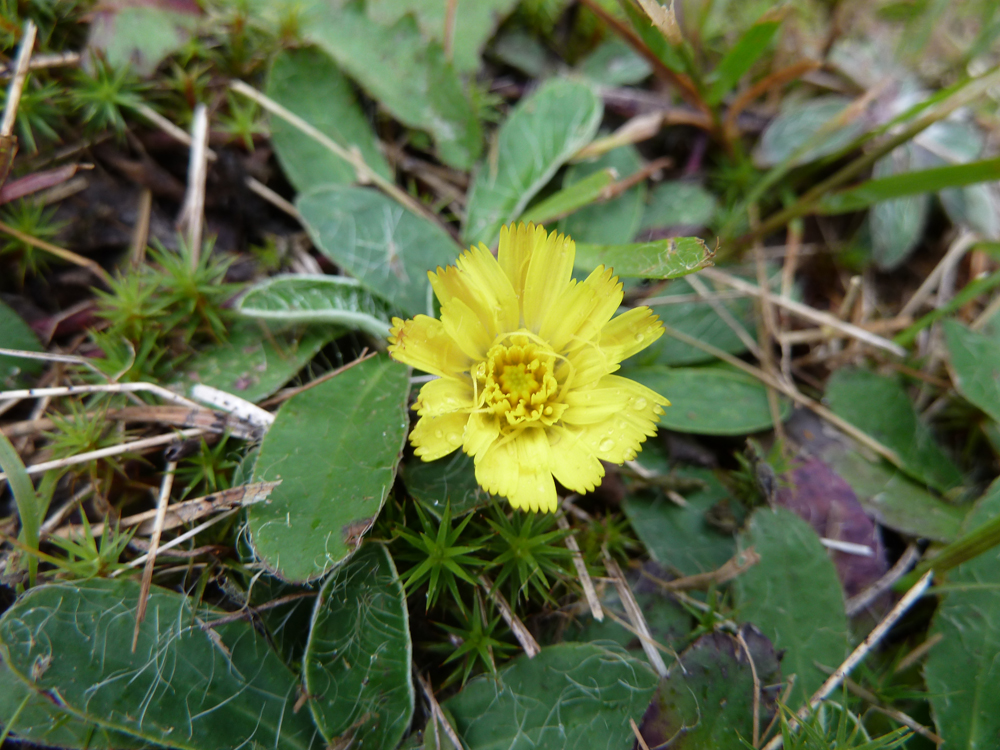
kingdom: Plantae
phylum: Tracheophyta
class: Magnoliopsida
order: Asterales
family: Asteraceae
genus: Pilosella
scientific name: Pilosella officinarum
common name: Mouse-ear hawkweed
